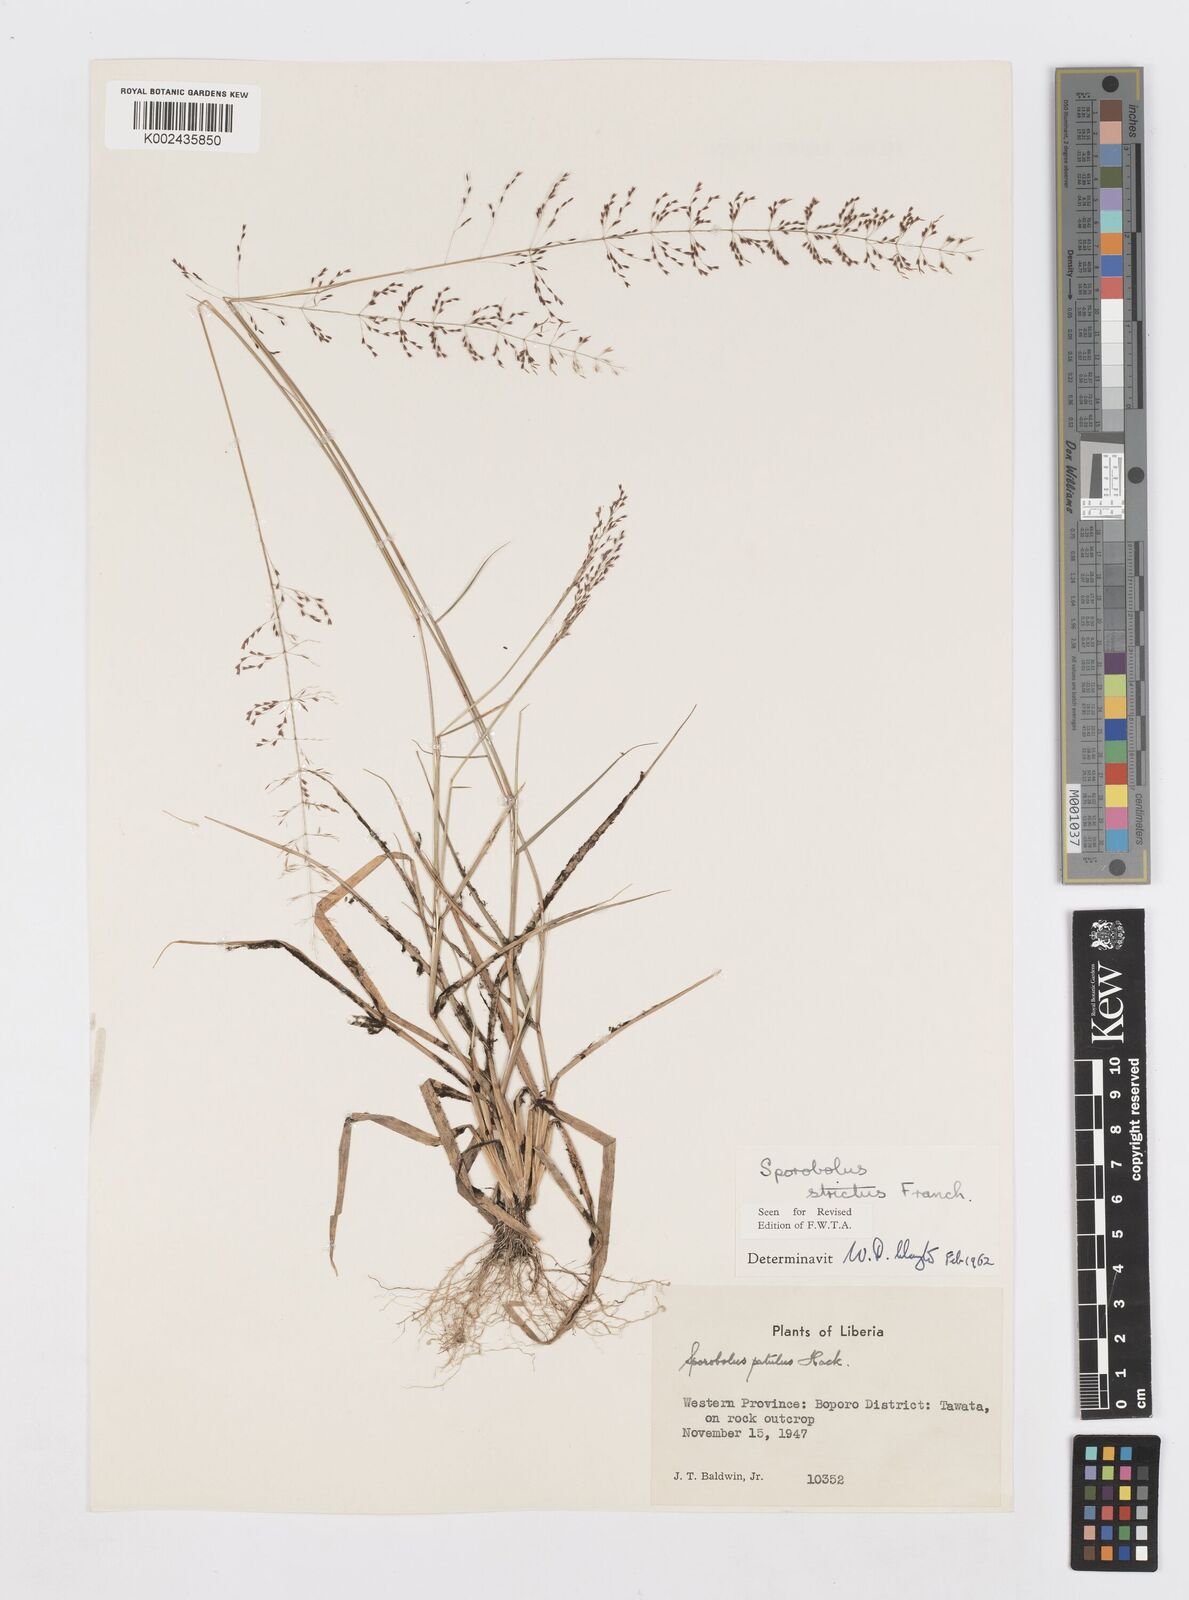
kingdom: Plantae
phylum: Tracheophyta
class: Liliopsida
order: Poales
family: Poaceae
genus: Sporobolus
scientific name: Sporobolus paniculatus
